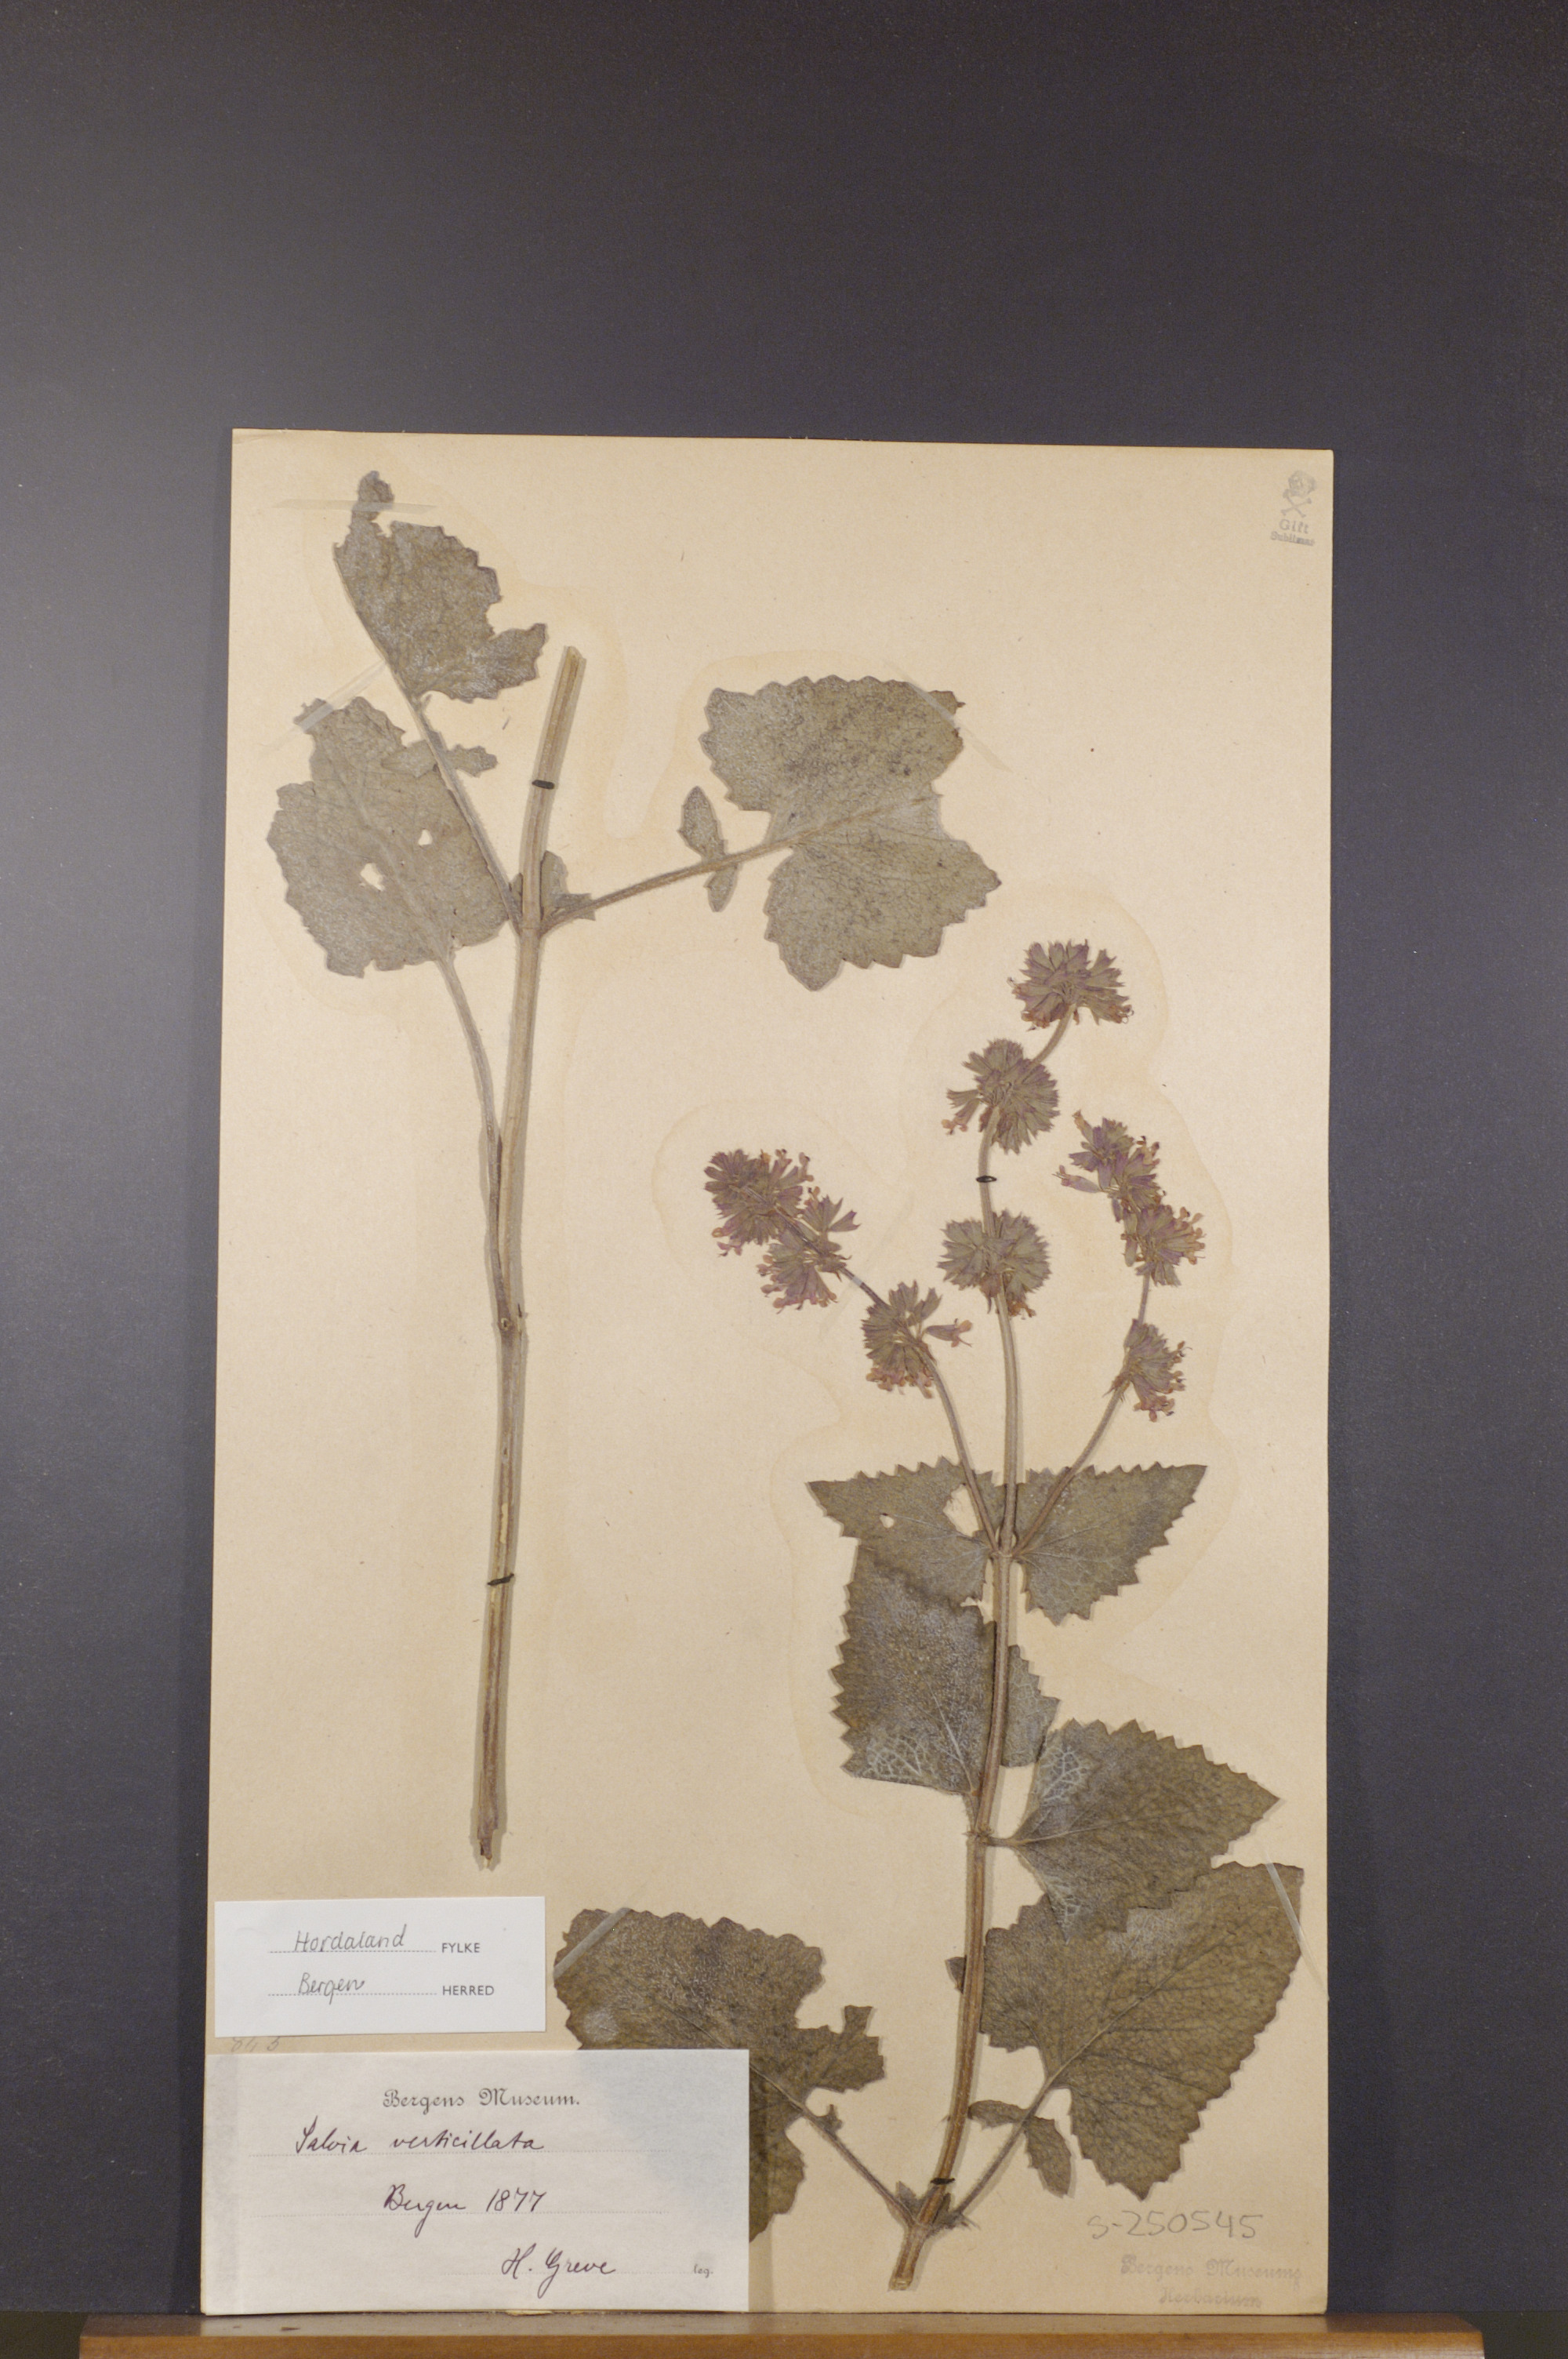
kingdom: Plantae
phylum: Tracheophyta
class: Magnoliopsida
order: Lamiales
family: Lamiaceae
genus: Salvia
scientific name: Salvia verticillata
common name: Whorled clary
